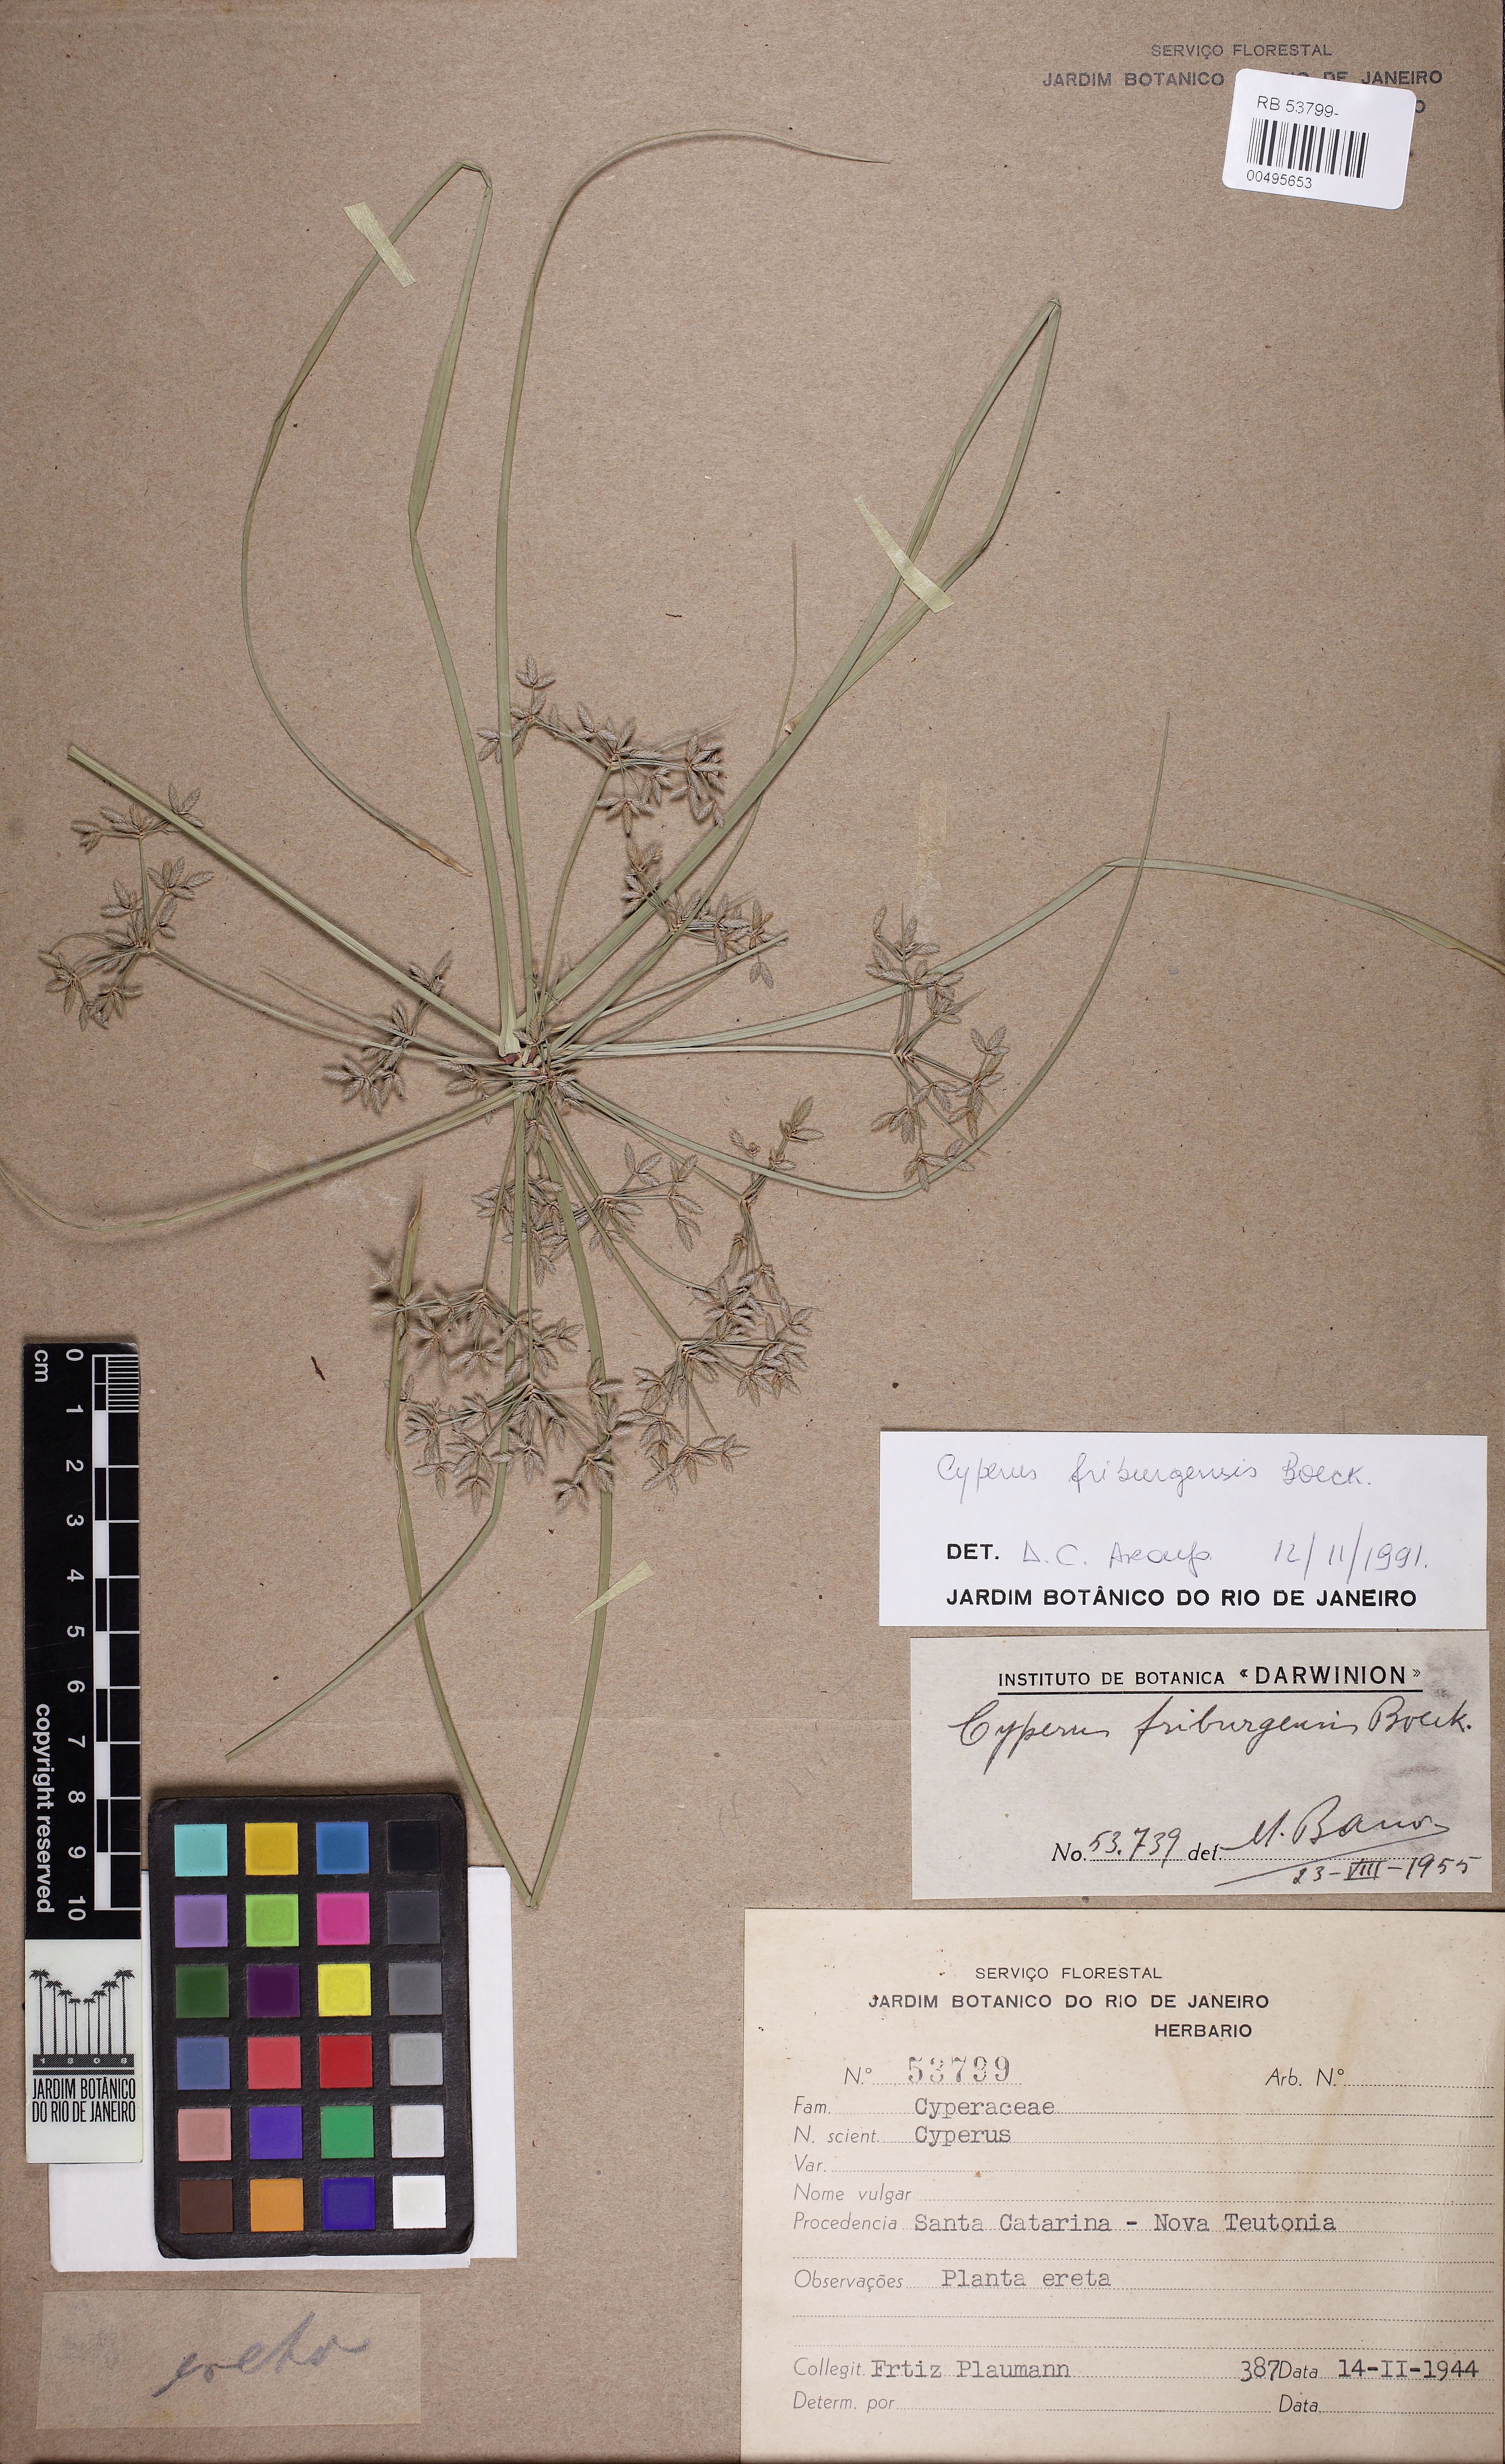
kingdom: Plantae
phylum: Tracheophyta
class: Liliopsida
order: Poales
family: Cyperaceae
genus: Cyperus
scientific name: Cyperus burkartii
